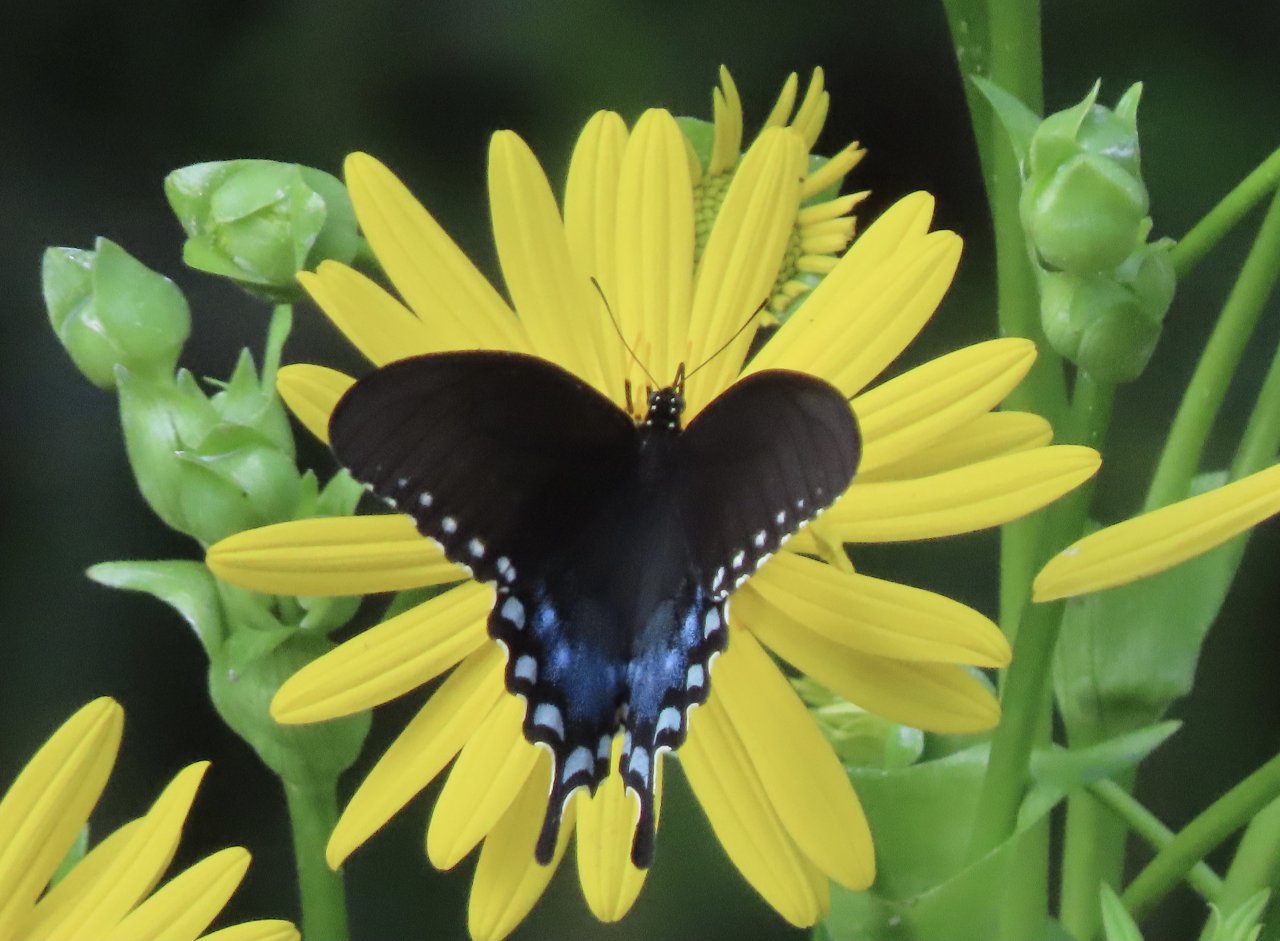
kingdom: Animalia
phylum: Arthropoda
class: Insecta
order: Lepidoptera
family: Papilionidae
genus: Pterourus
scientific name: Pterourus troilus
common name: Spicebush Swallowtail
